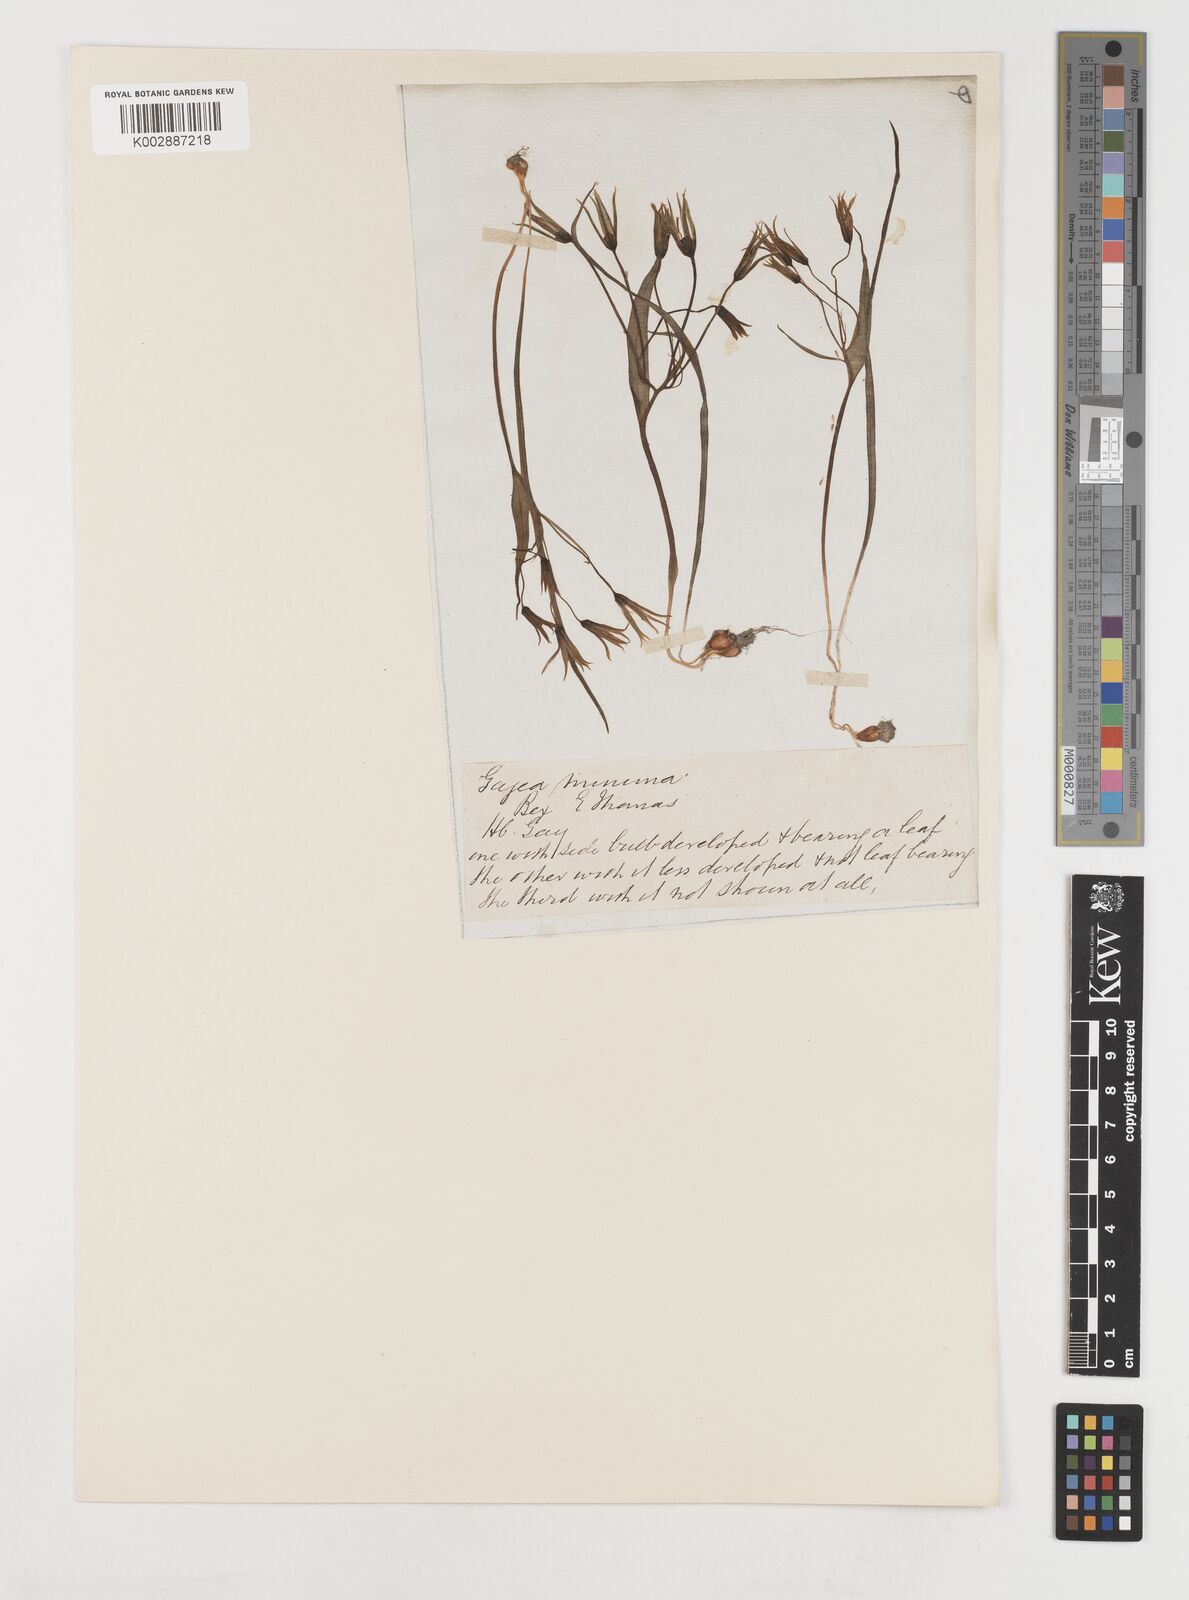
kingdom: Plantae
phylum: Tracheophyta
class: Liliopsida
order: Liliales
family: Liliaceae
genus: Gagea
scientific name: Gagea minima
